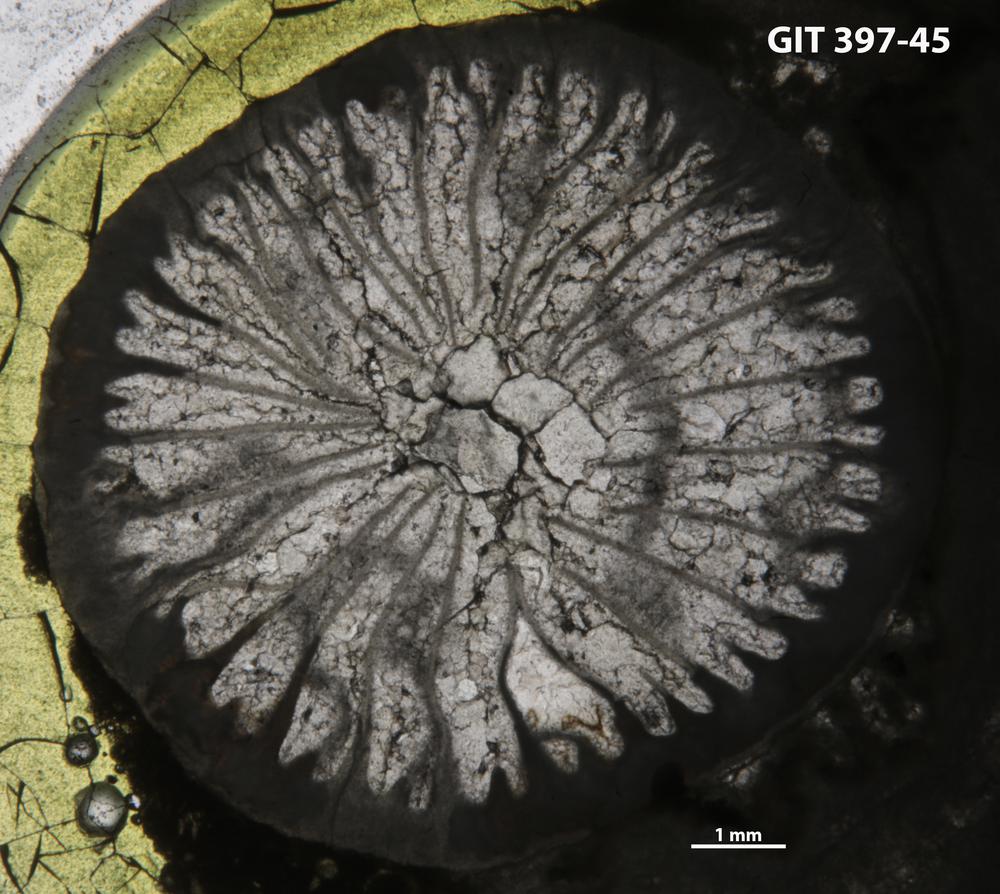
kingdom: Animalia
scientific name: Animalia
